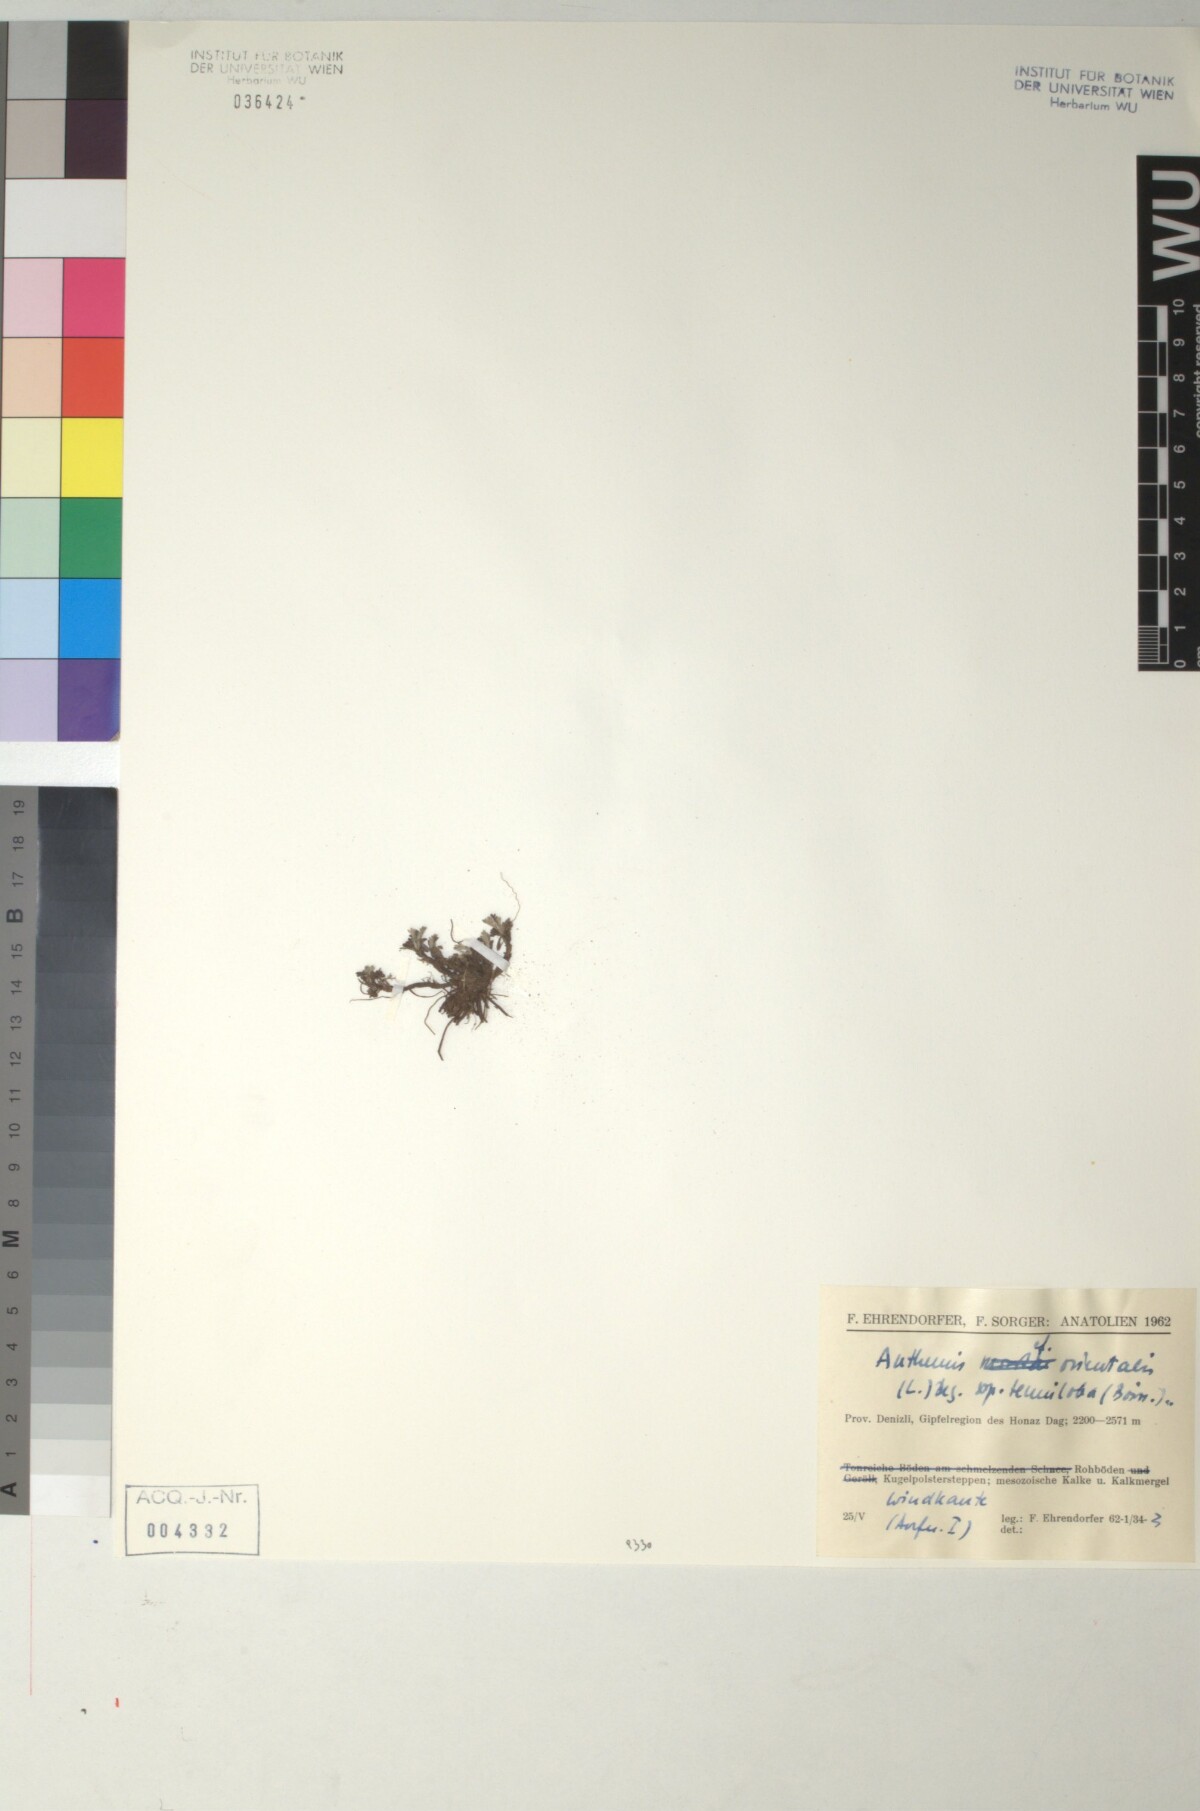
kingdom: Plantae
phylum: Tracheophyta
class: Magnoliopsida
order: Asterales
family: Asteraceae
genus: Anthemis
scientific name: Anthemis orientalis
